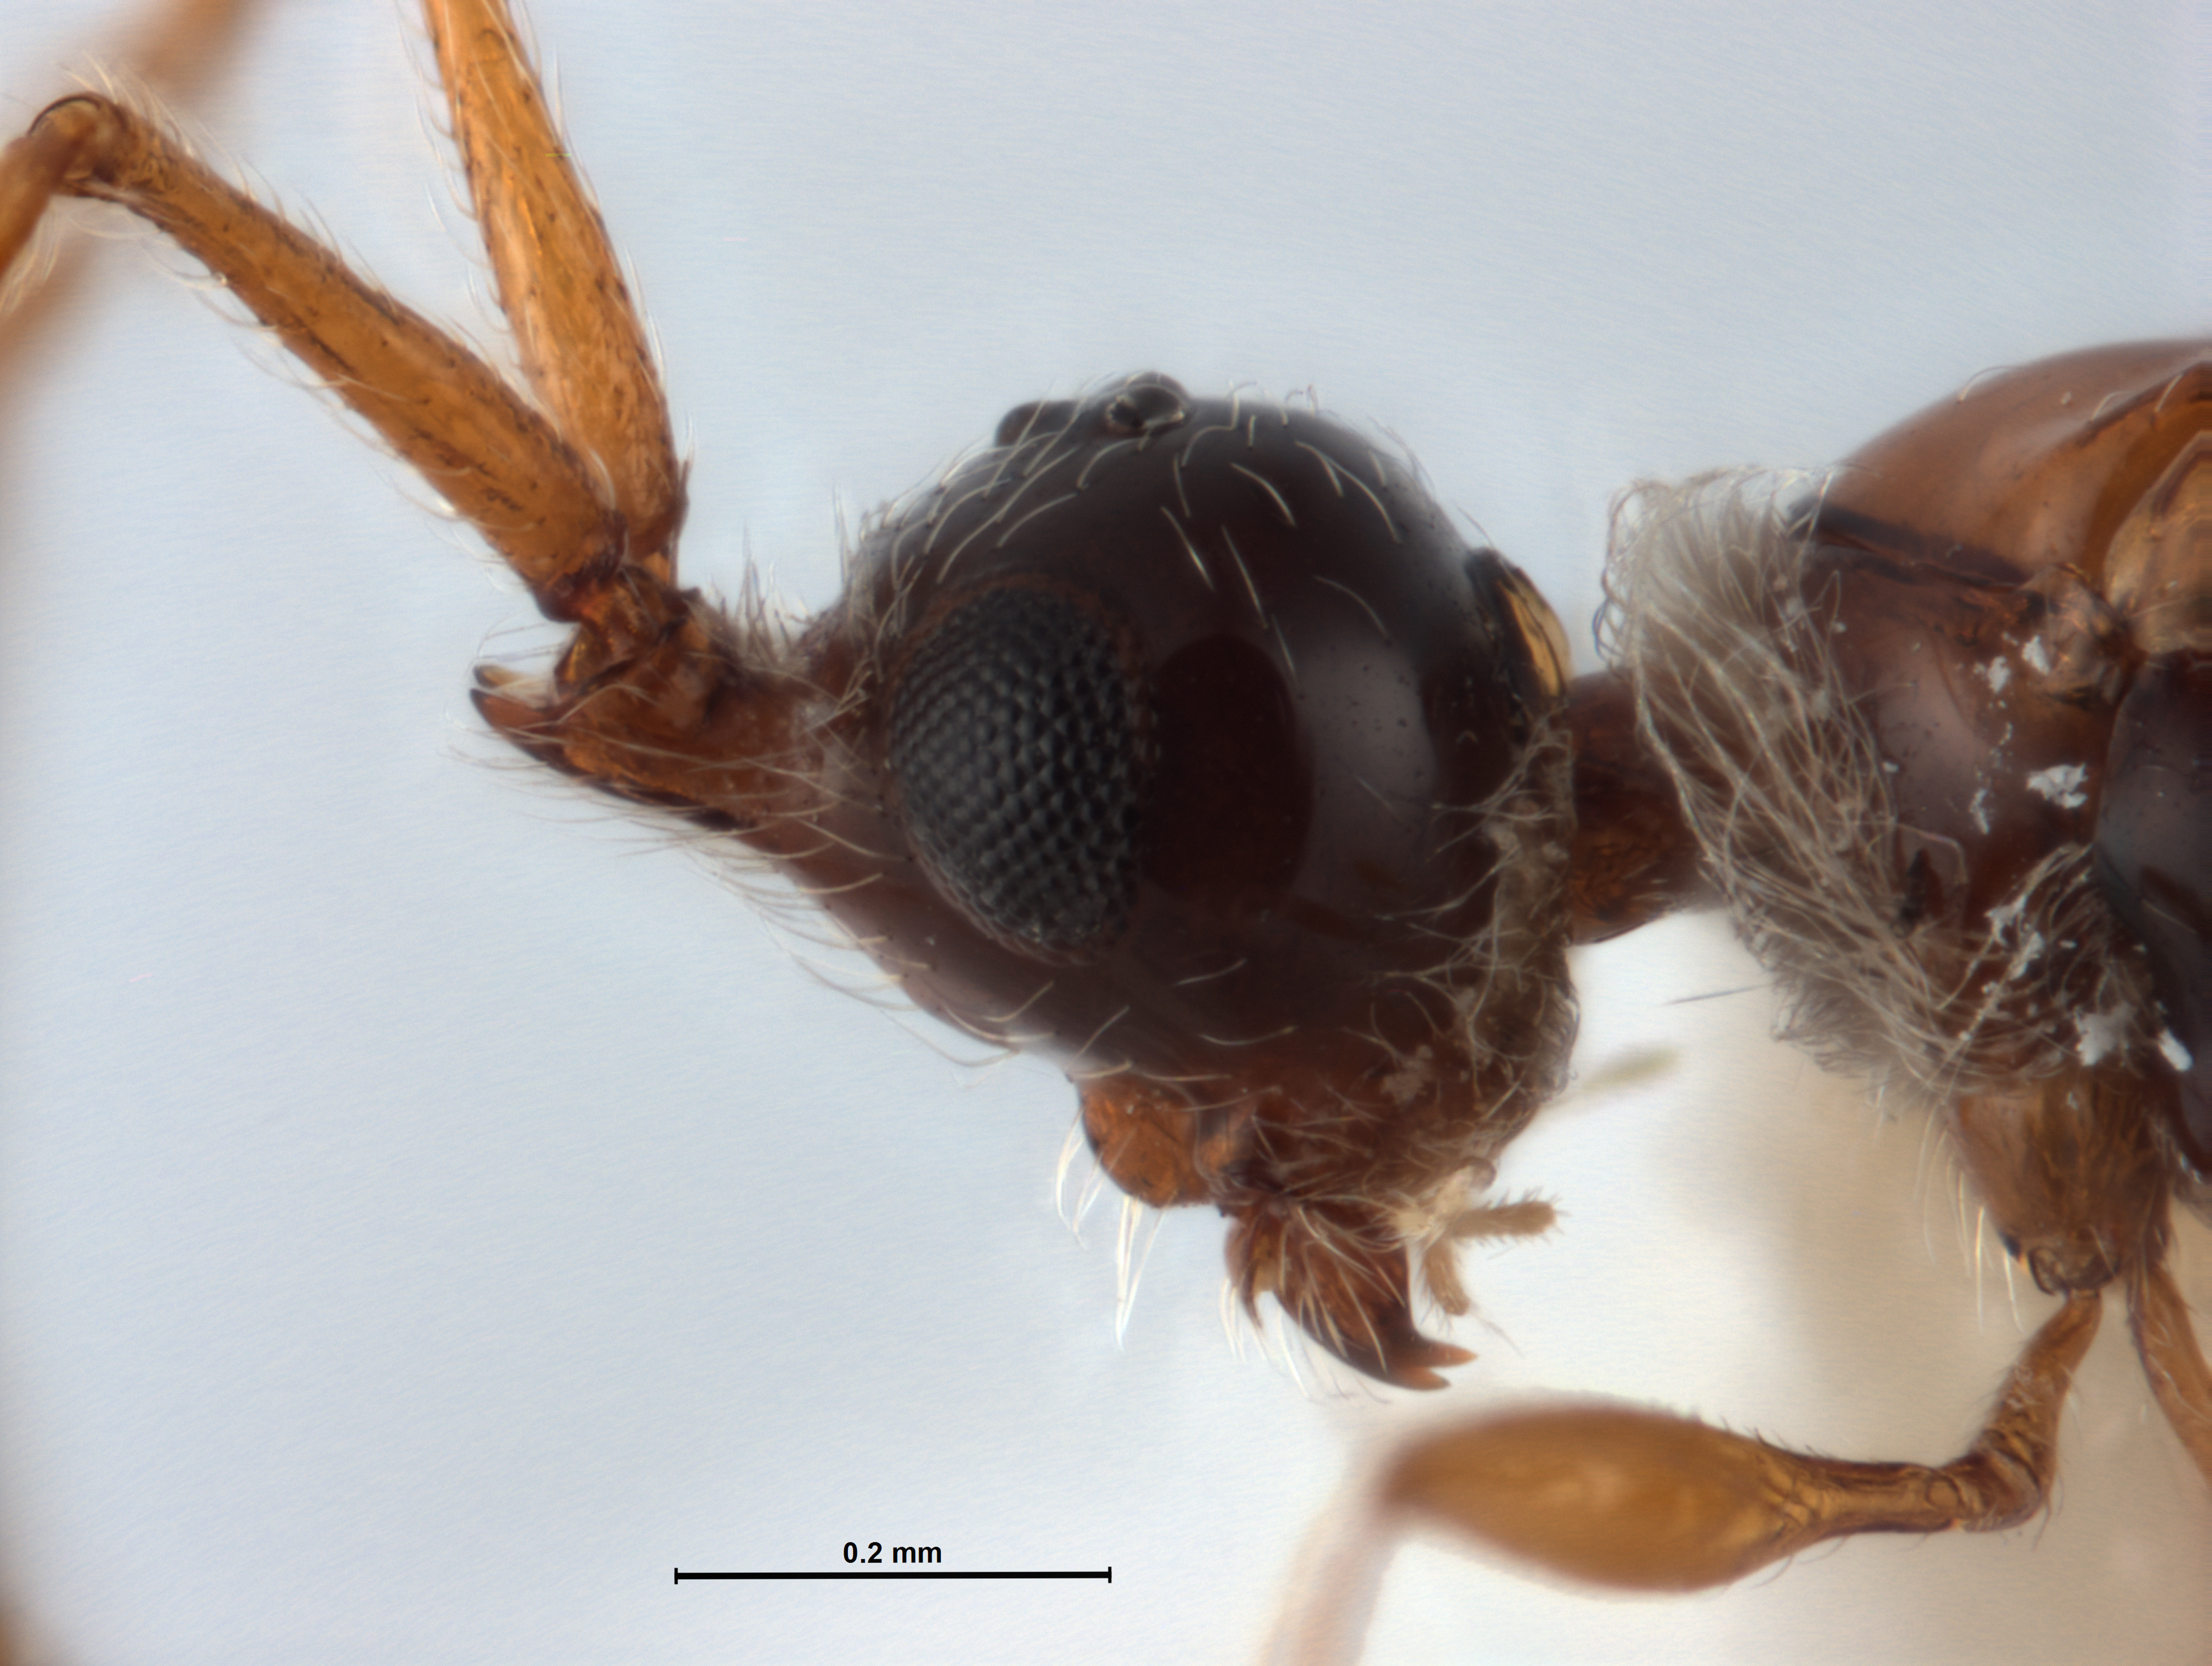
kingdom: Animalia
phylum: Arthropoda
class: Insecta
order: Hymenoptera
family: Diapriidae
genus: Archaeopria
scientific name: Archaeopria pelor
